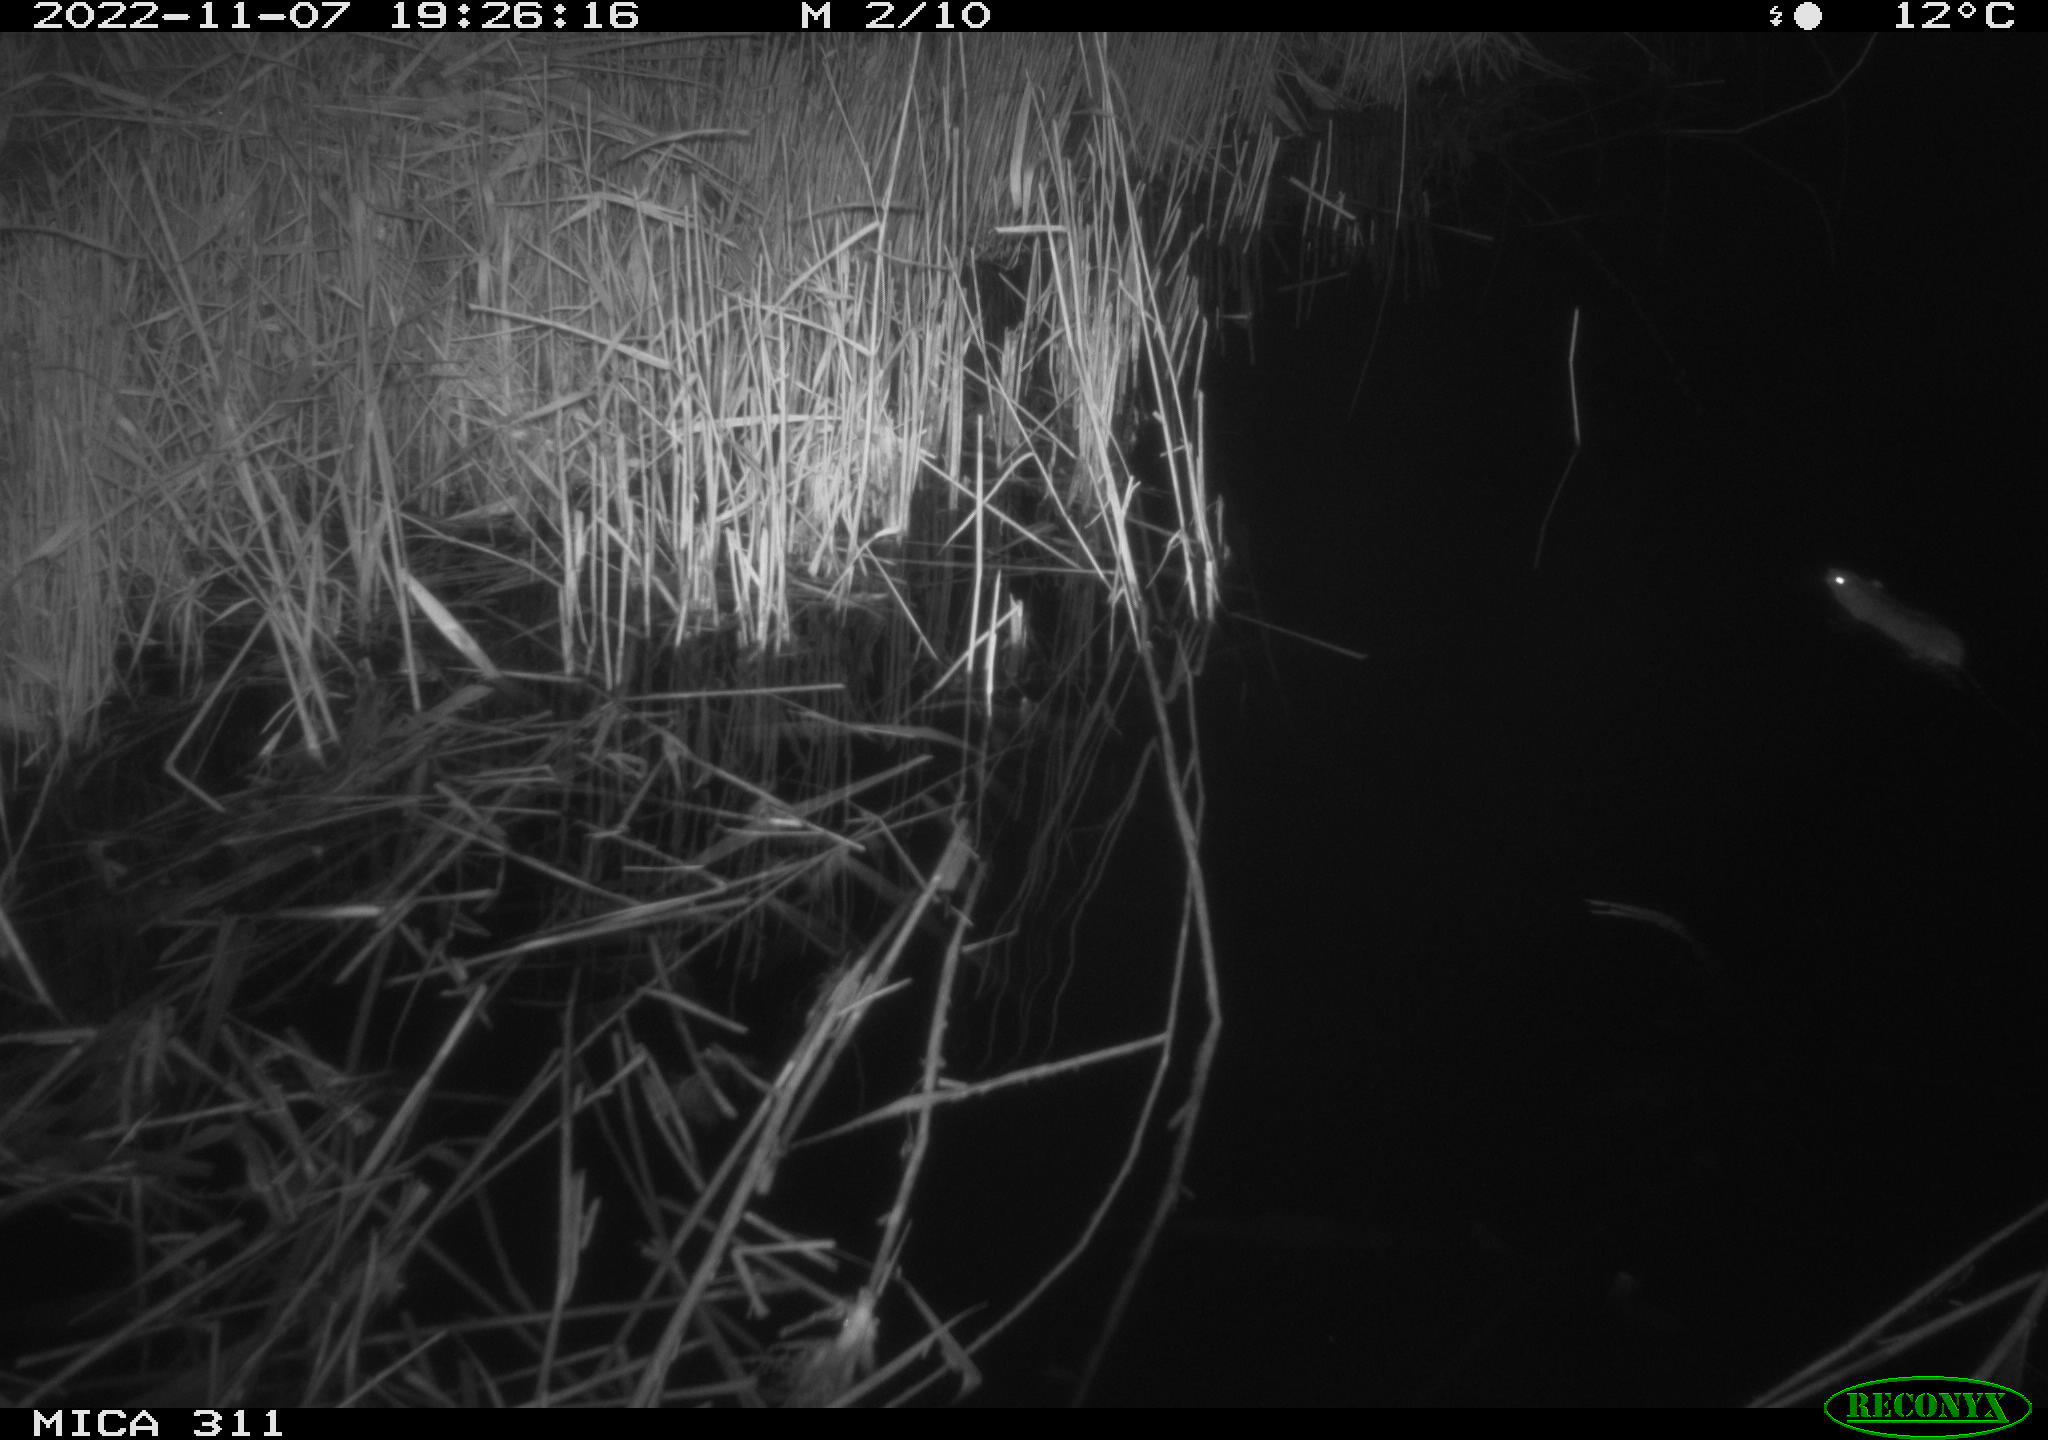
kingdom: Animalia
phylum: Chordata
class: Mammalia
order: Rodentia
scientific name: Rodentia
